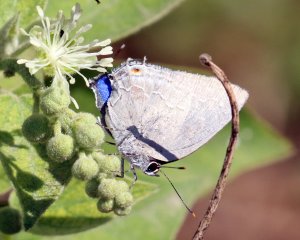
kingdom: Animalia
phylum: Arthropoda
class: Insecta
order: Lepidoptera
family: Lycaenidae
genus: Strephonota
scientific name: Strephonota tephraeus
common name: Pearly-Gray Hairstreak
